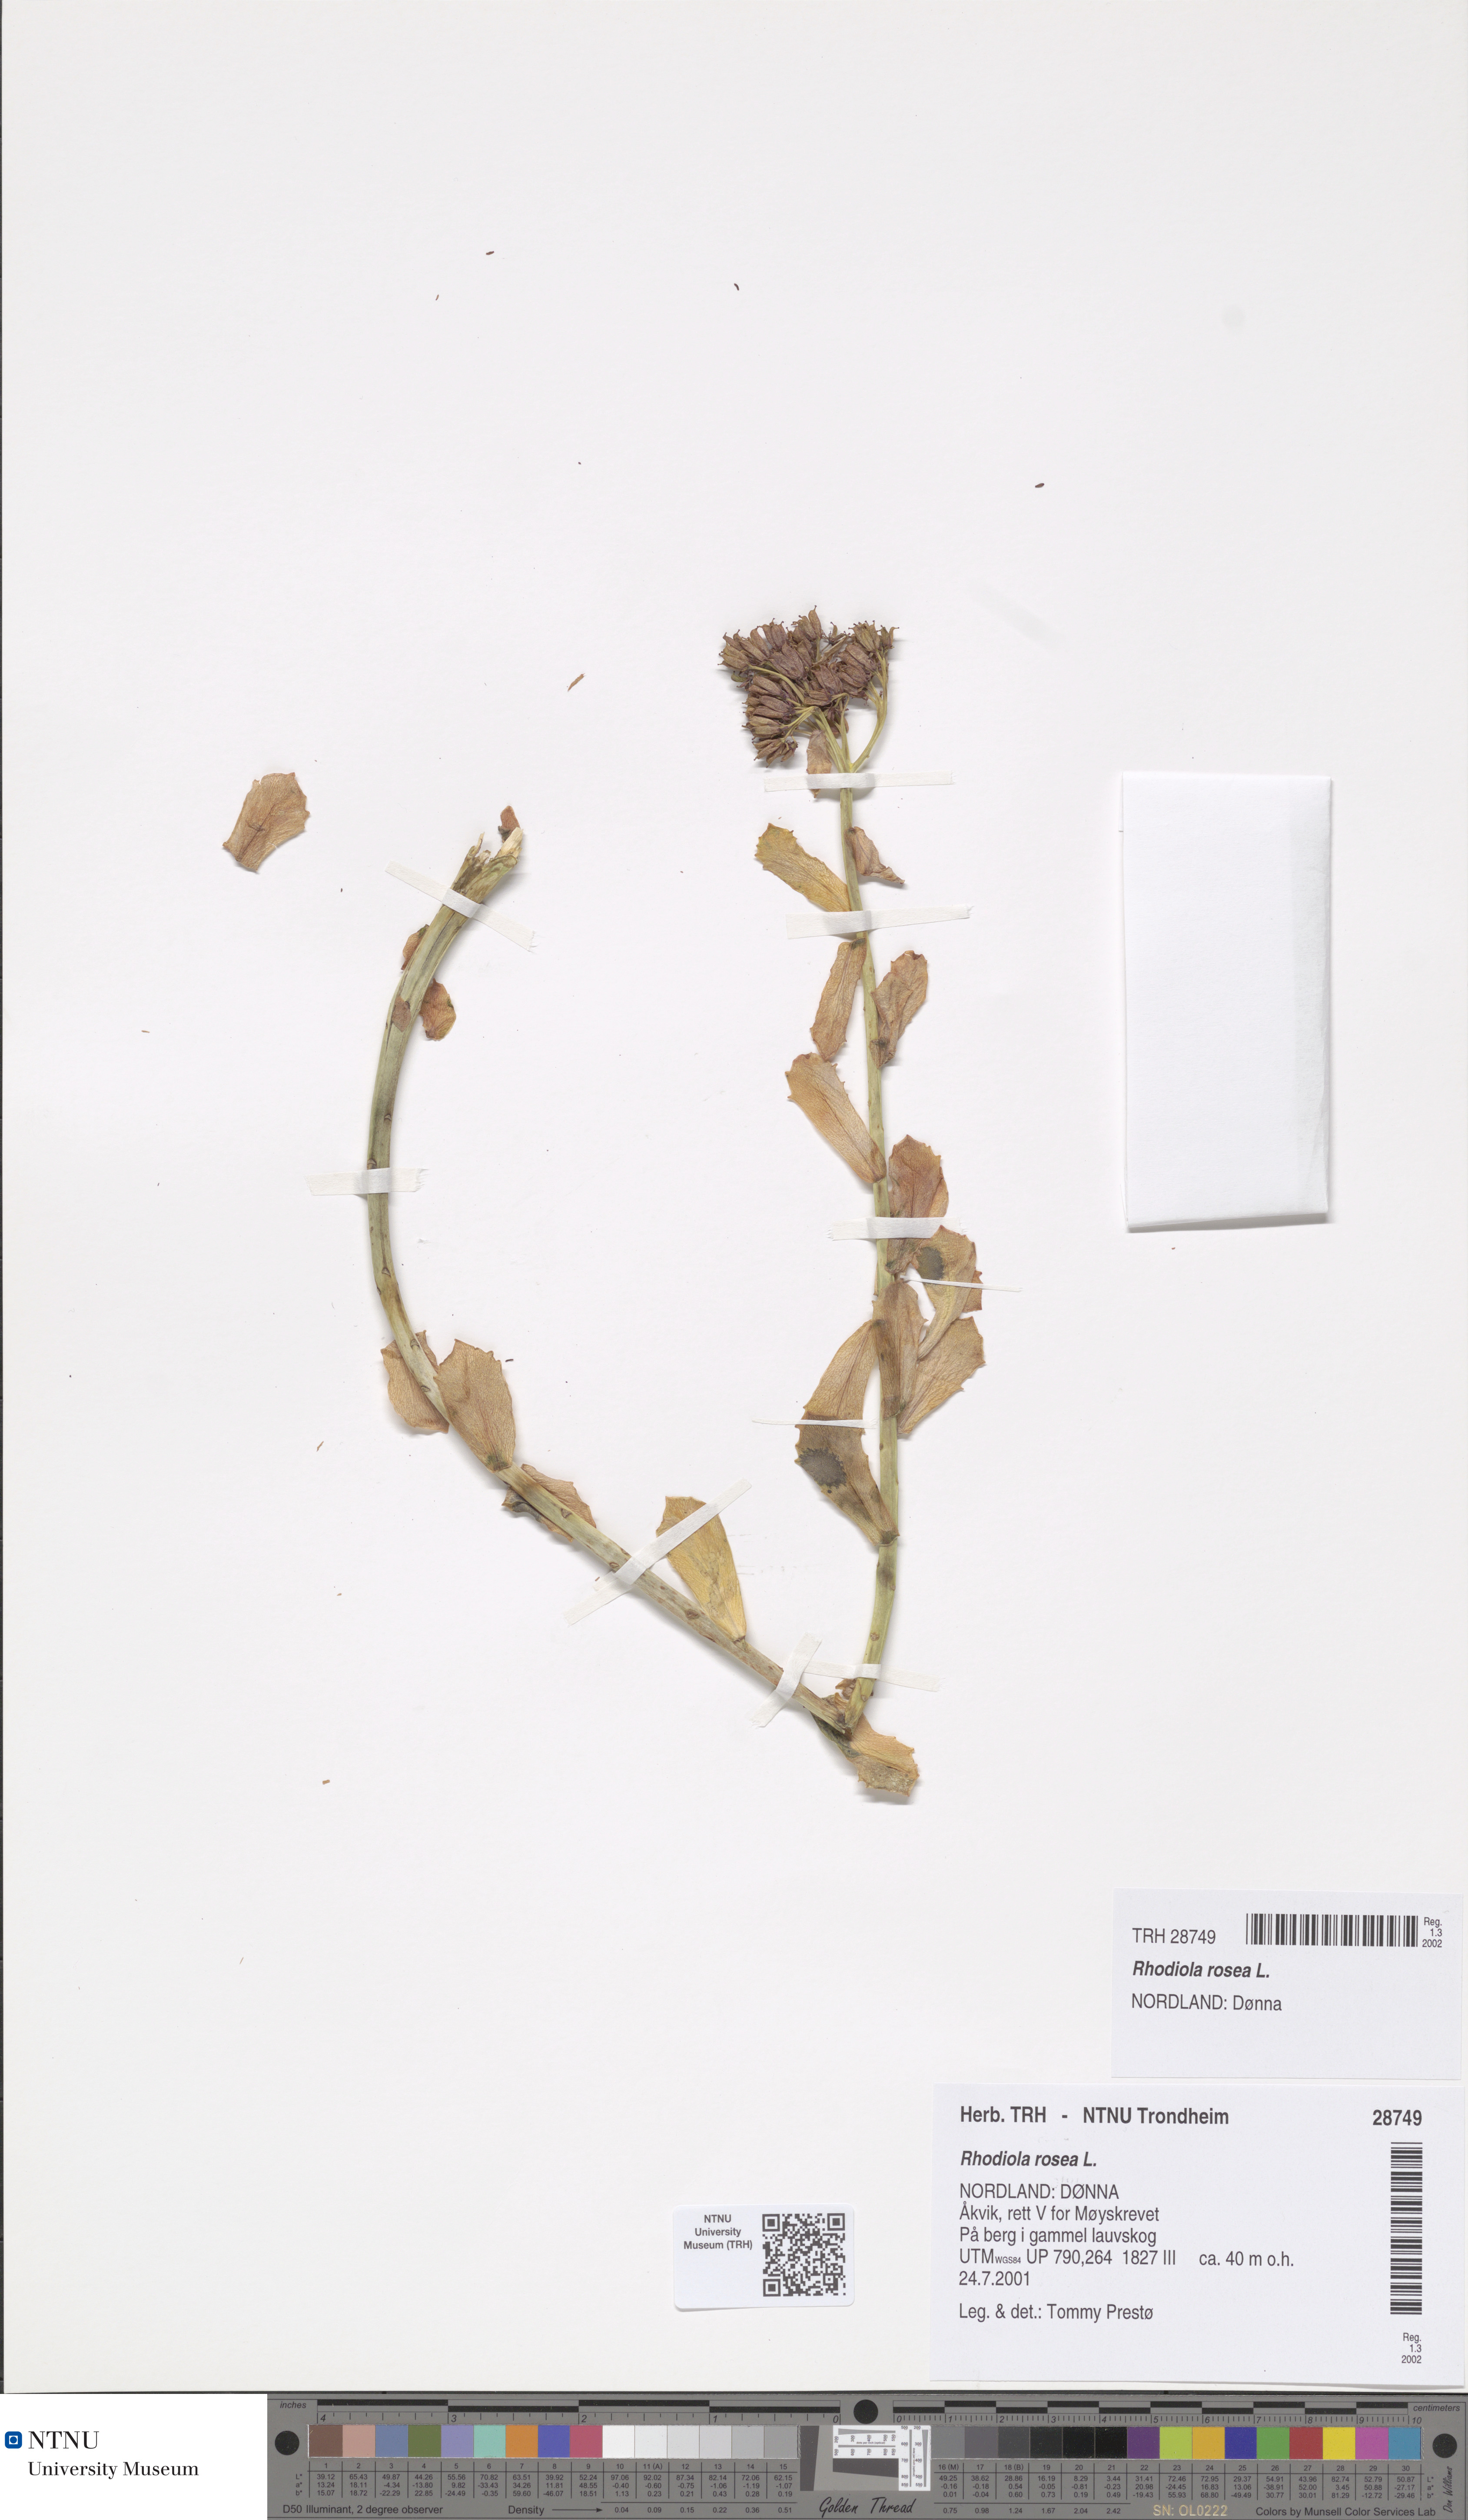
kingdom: Plantae
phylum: Tracheophyta
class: Magnoliopsida
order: Saxifragales
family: Crassulaceae
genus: Rhodiola
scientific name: Rhodiola rosea
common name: Roseroot
